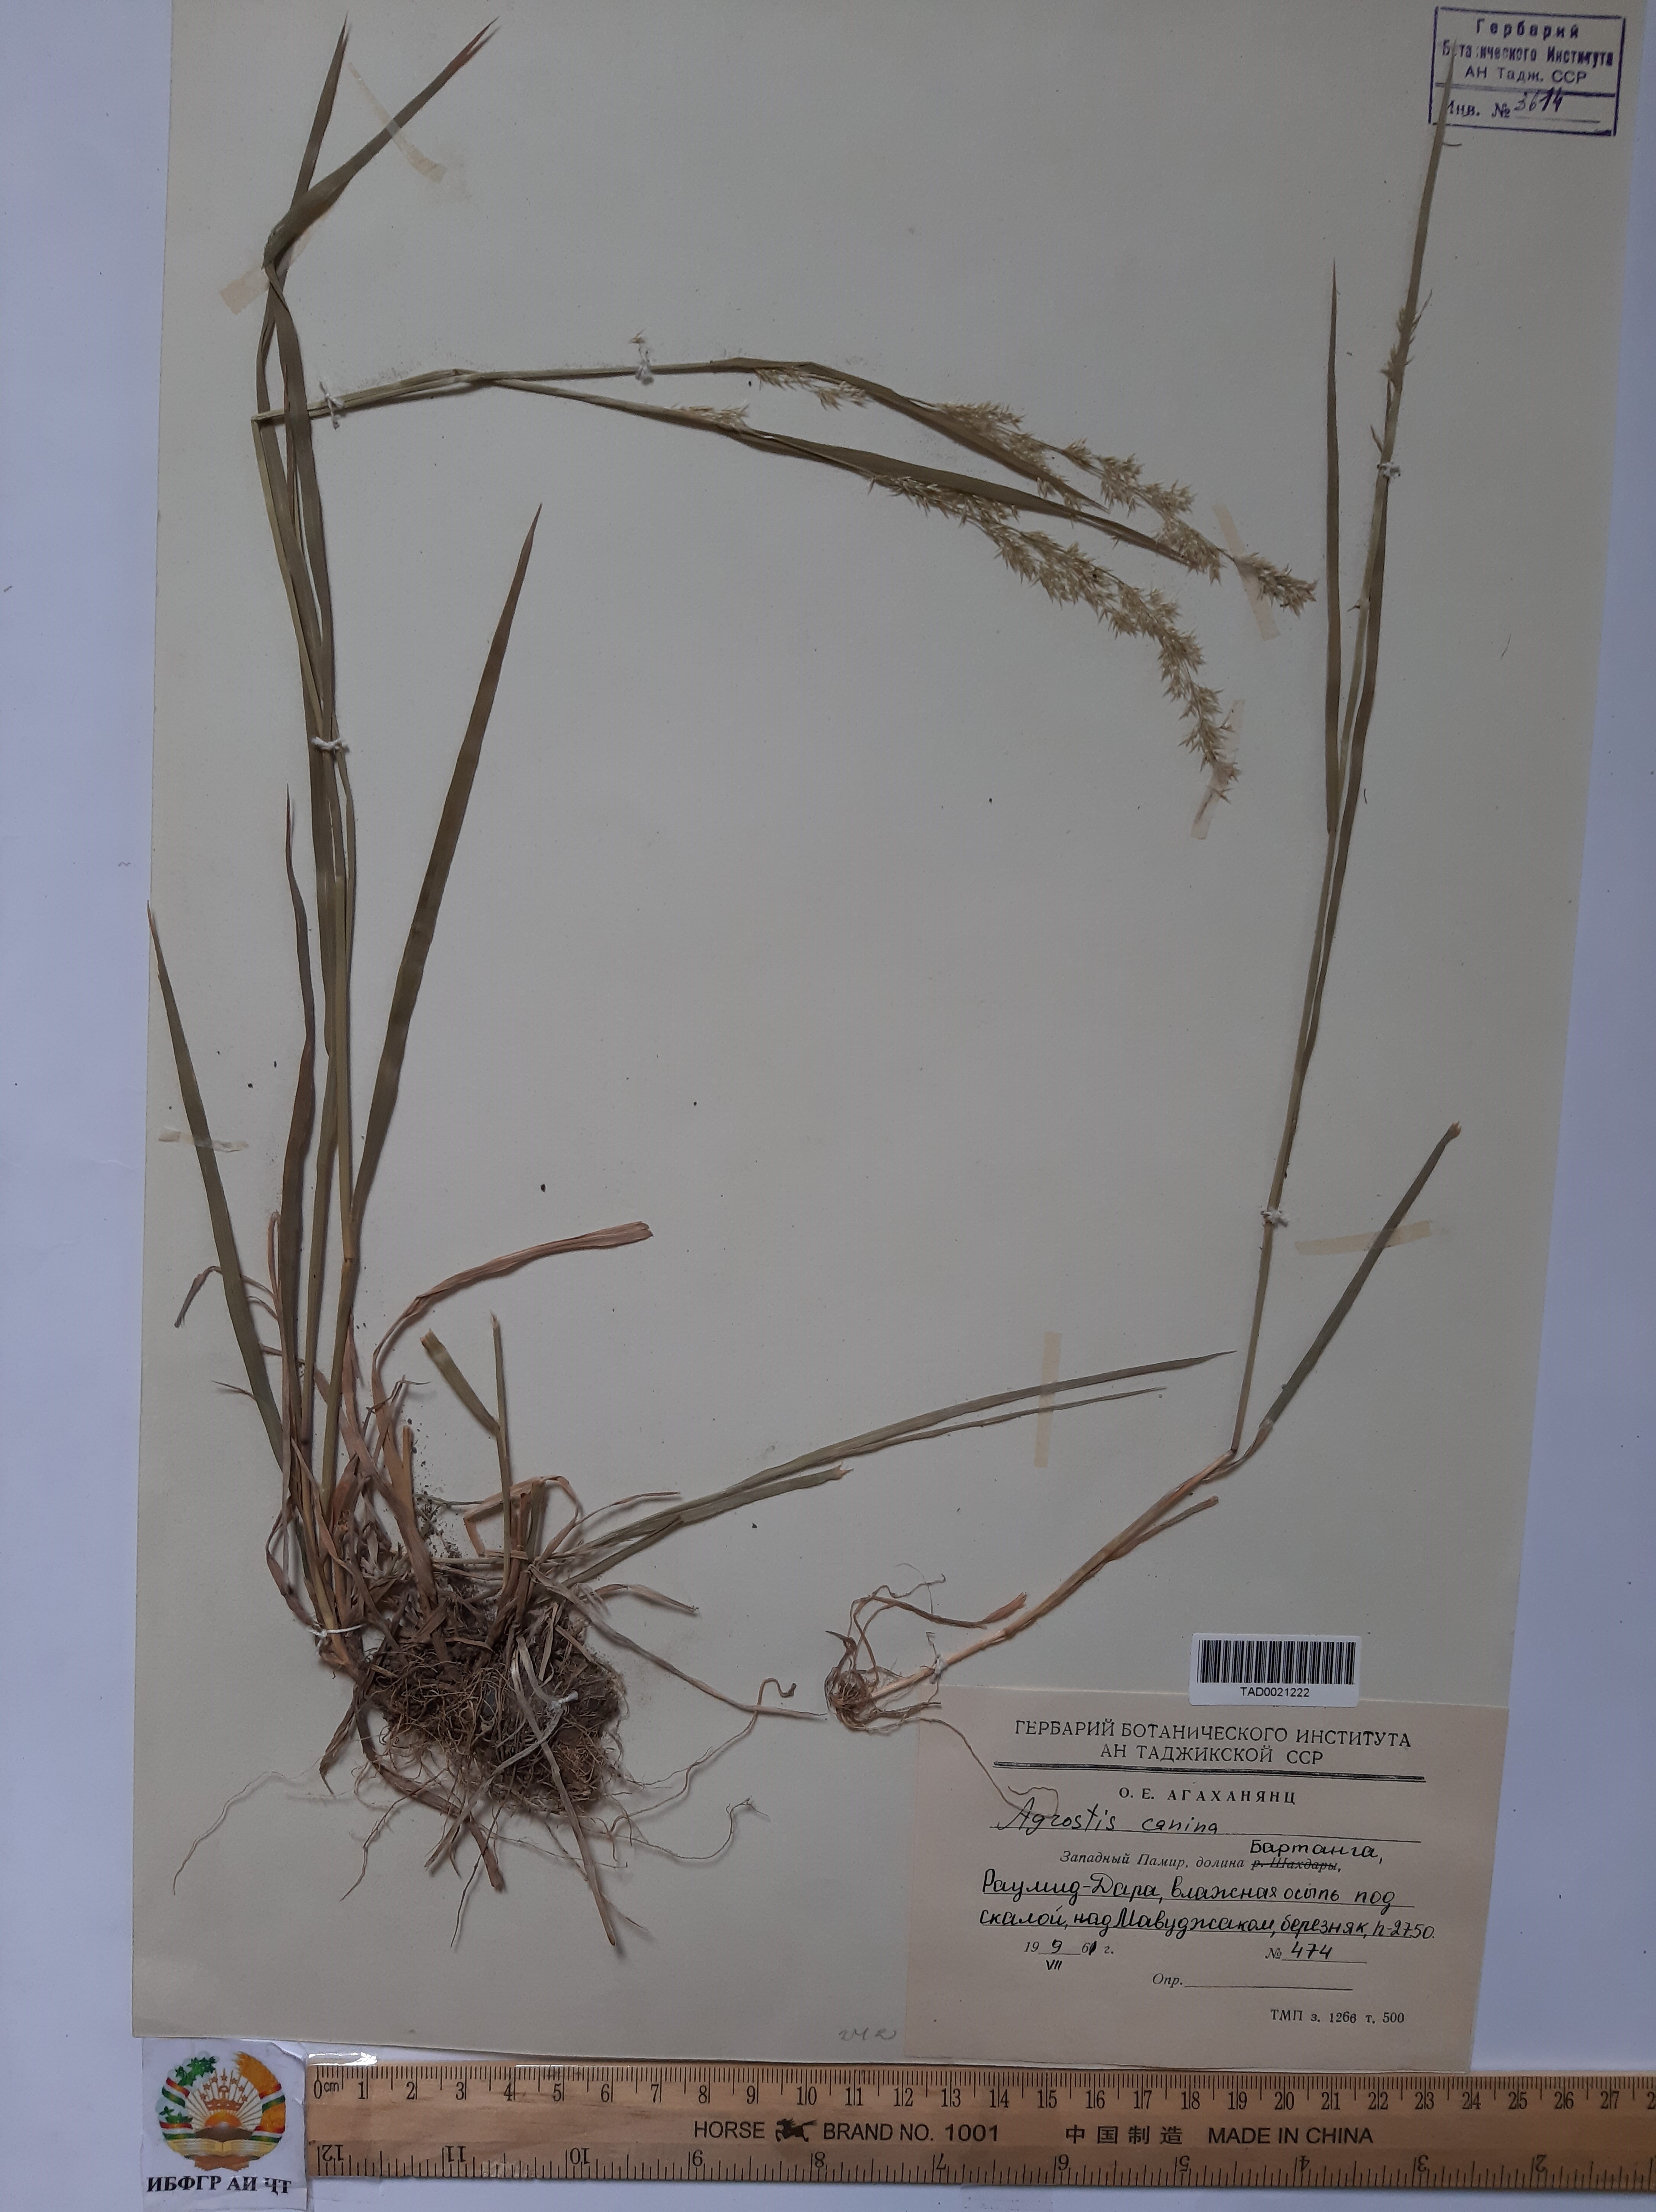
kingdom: Plantae
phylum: Tracheophyta
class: Liliopsida
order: Poales
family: Poaceae
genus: Agrostis
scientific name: Agrostis canina
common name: Velvet bent
